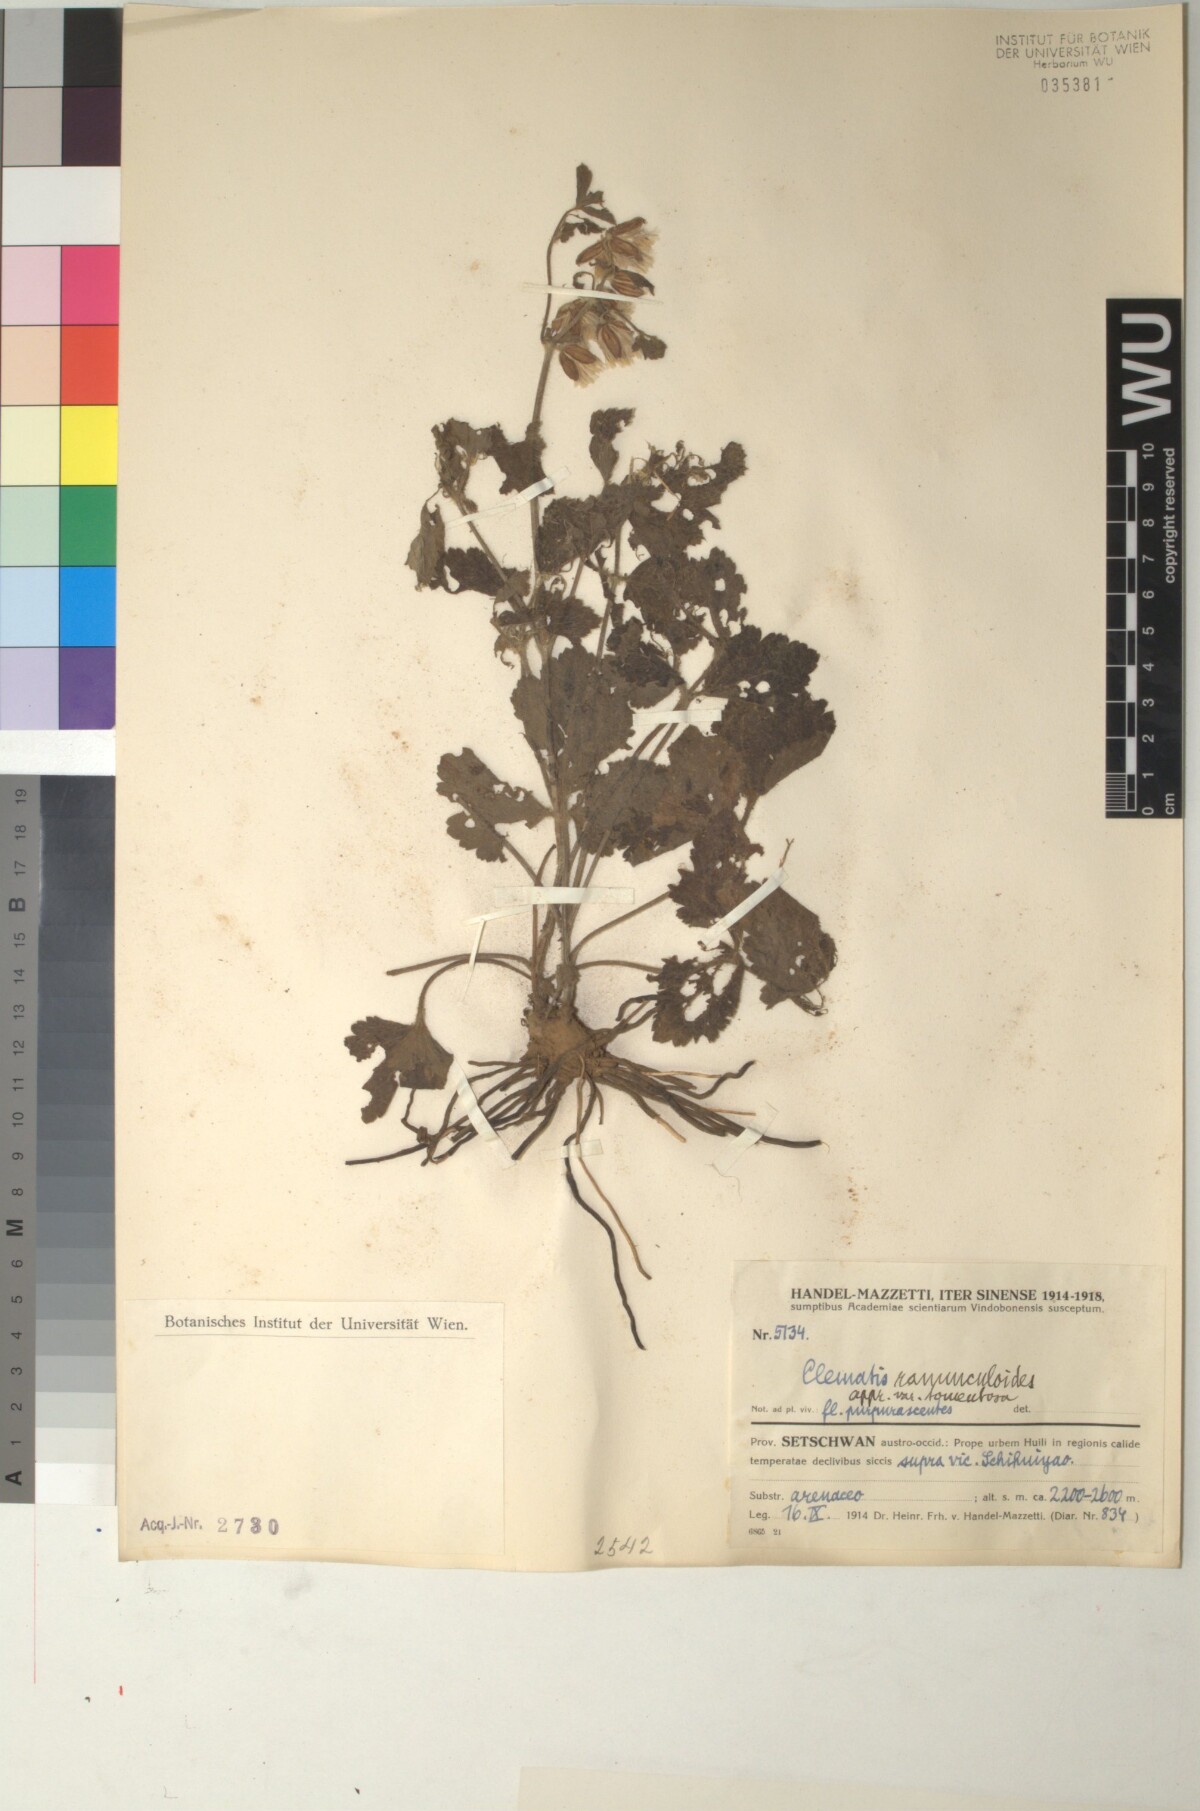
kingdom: Plantae
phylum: Tracheophyta
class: Magnoliopsida
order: Ranunculales
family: Ranunculaceae
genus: Clematis
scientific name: Clematis pinchuanensis
